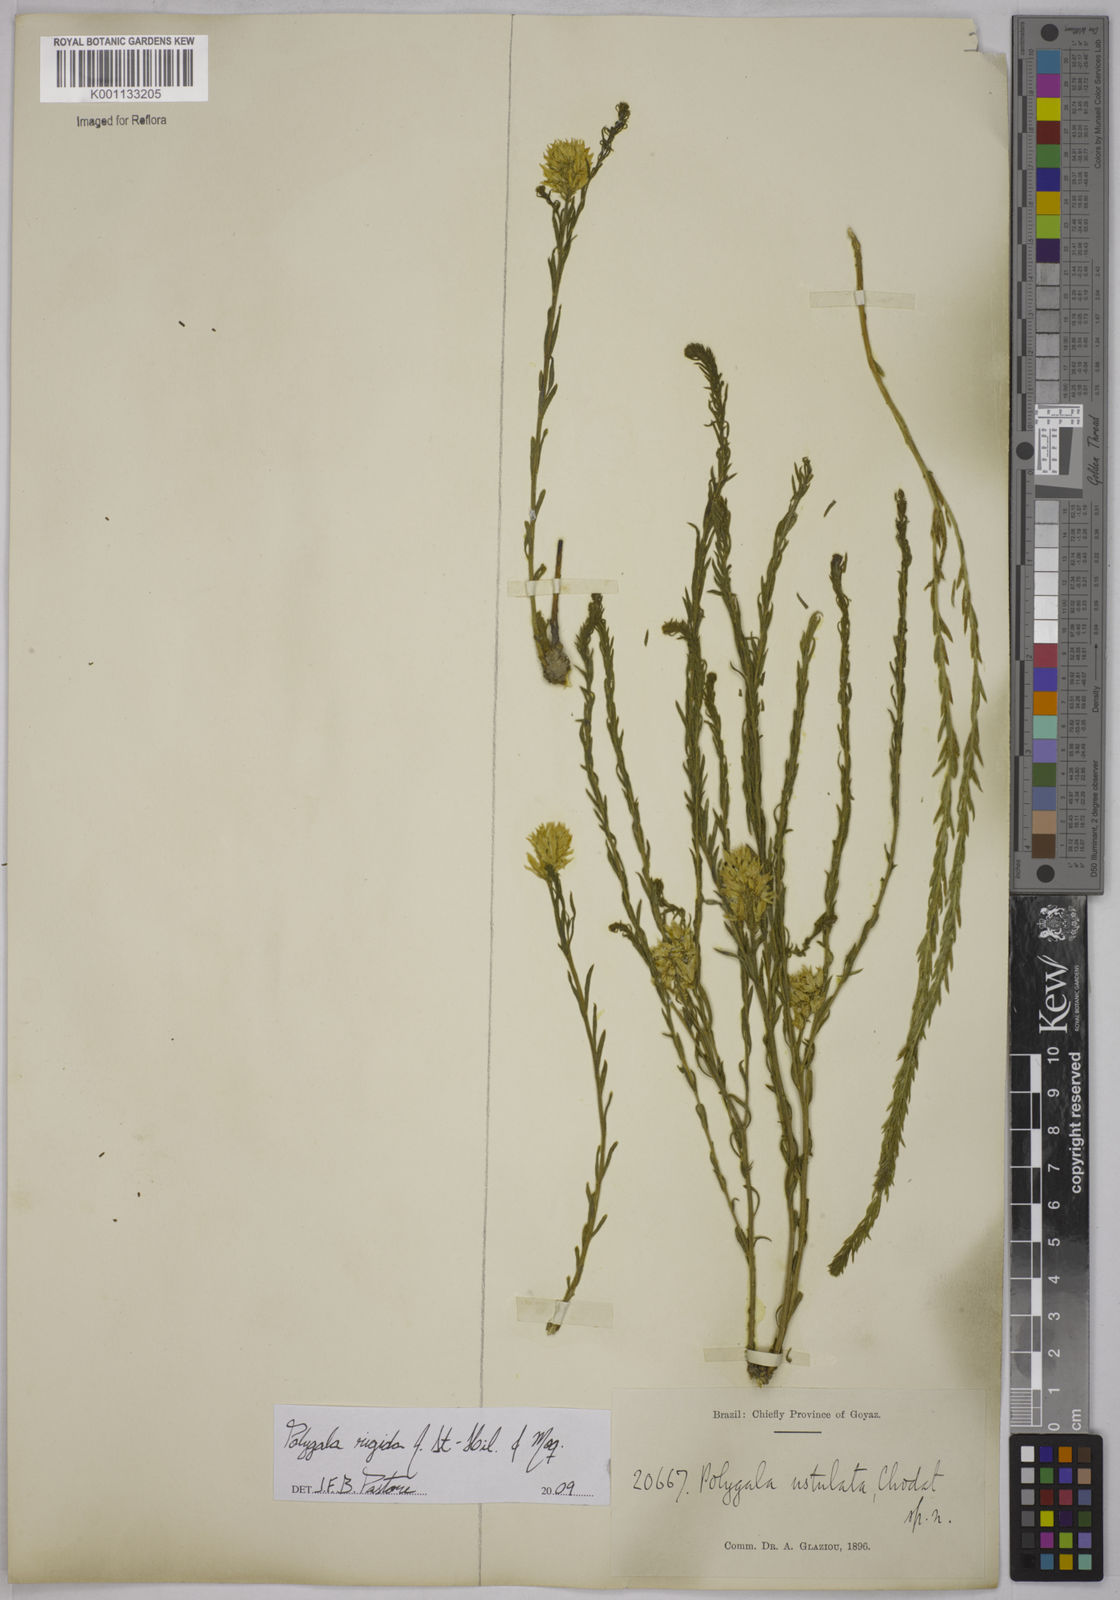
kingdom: Plantae
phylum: Tracheophyta
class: Magnoliopsida
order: Fabales
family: Polygalaceae
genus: Polygala
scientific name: Polygala rigida
